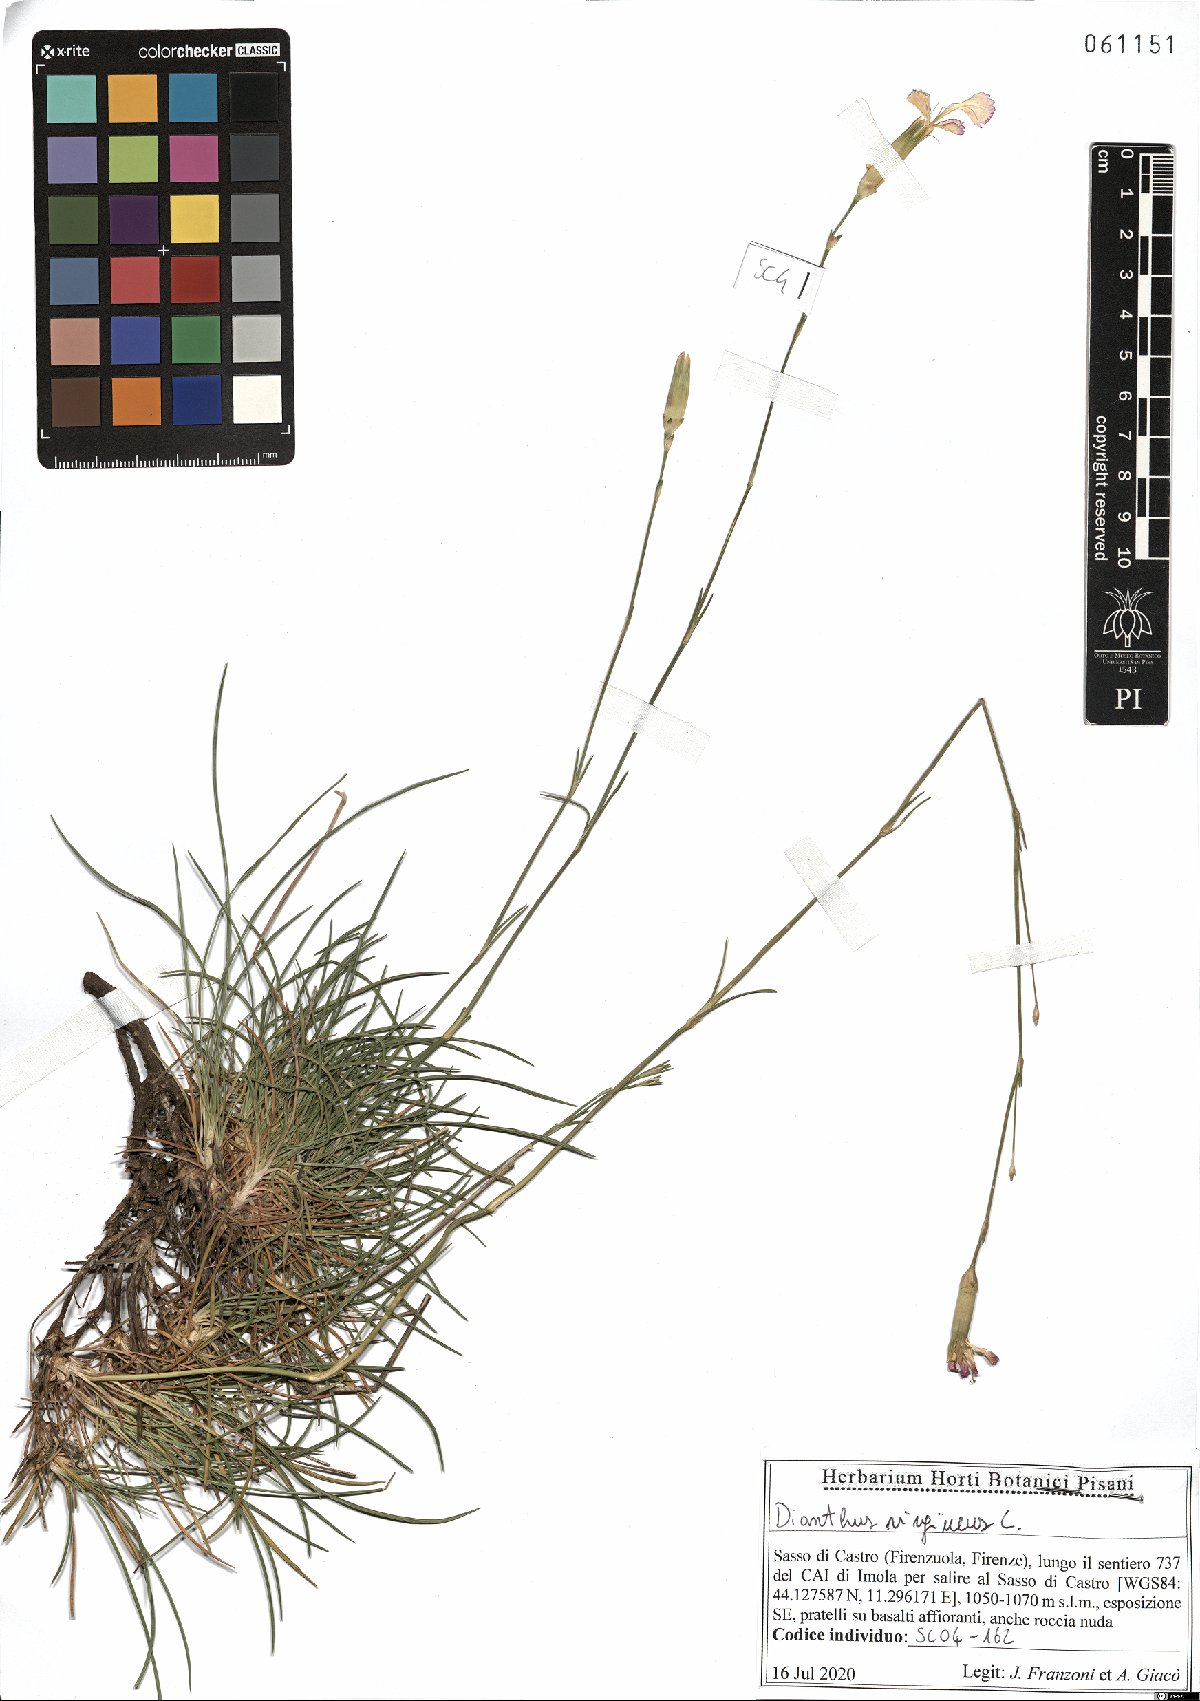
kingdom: Plantae
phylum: Tracheophyta
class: Magnoliopsida
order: Caryophyllales
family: Caryophyllaceae
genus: Dianthus
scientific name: Dianthus virgineus
